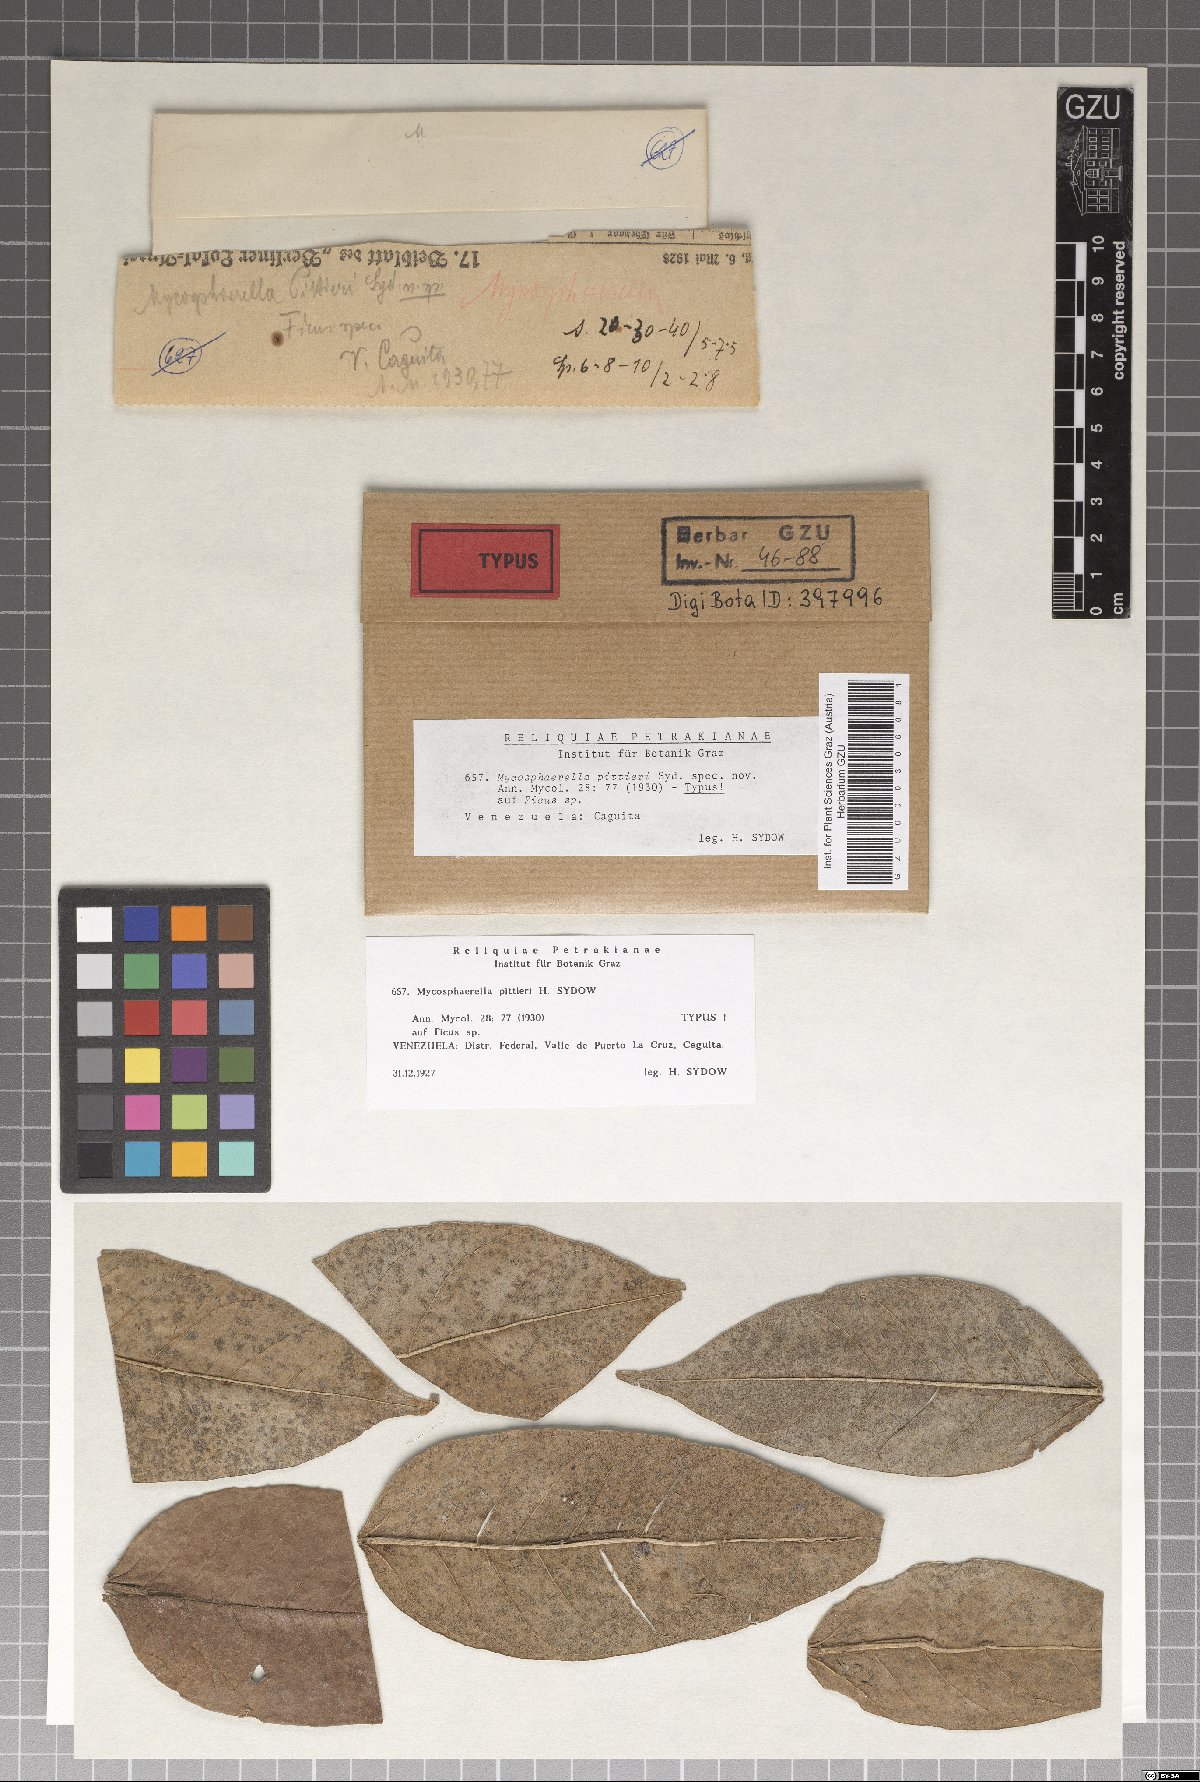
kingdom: Fungi
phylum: Ascomycota
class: Dothideomycetes
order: Mycosphaerellales
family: Mycosphaerellaceae
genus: Mycosphaerella
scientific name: Mycosphaerella pittieri
